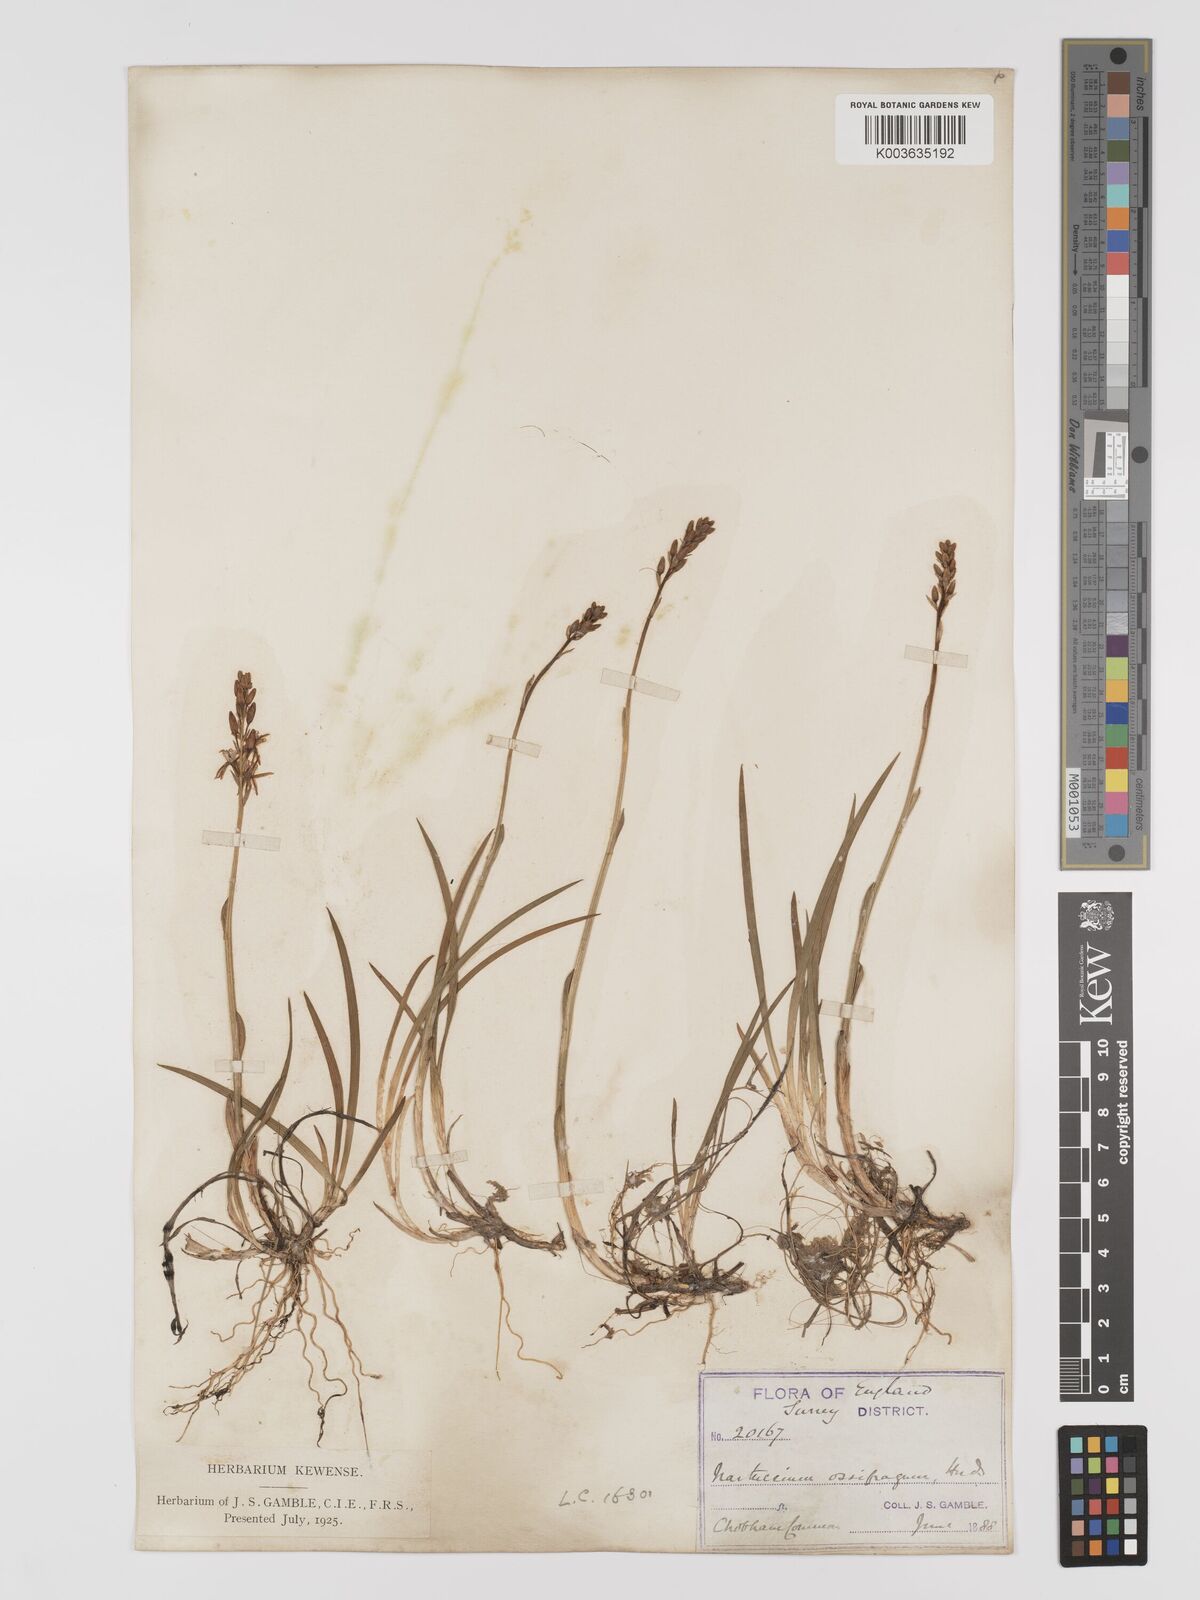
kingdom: Plantae
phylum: Tracheophyta
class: Liliopsida
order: Dioscoreales
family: Nartheciaceae
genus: Narthecium
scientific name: Narthecium
